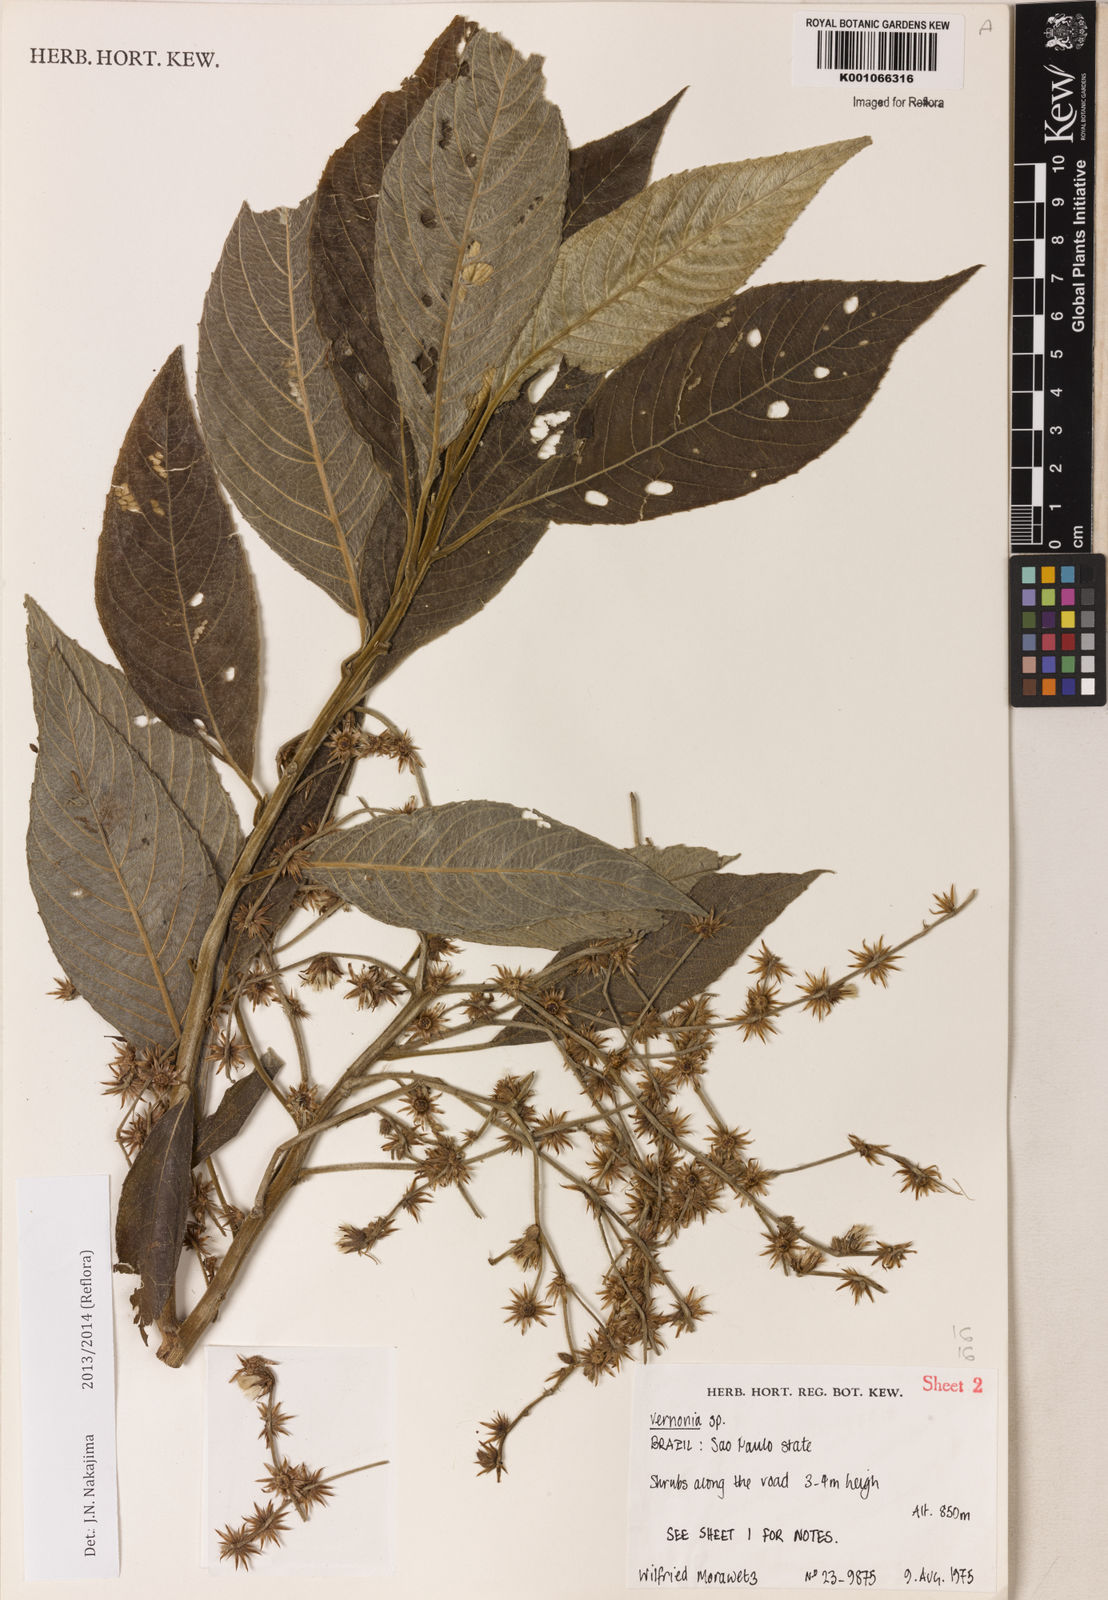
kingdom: Plantae
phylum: Tracheophyta
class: Magnoliopsida
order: Asterales
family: Asteraceae
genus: Lepidaploa
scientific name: Lepidaploa argyrotricha
